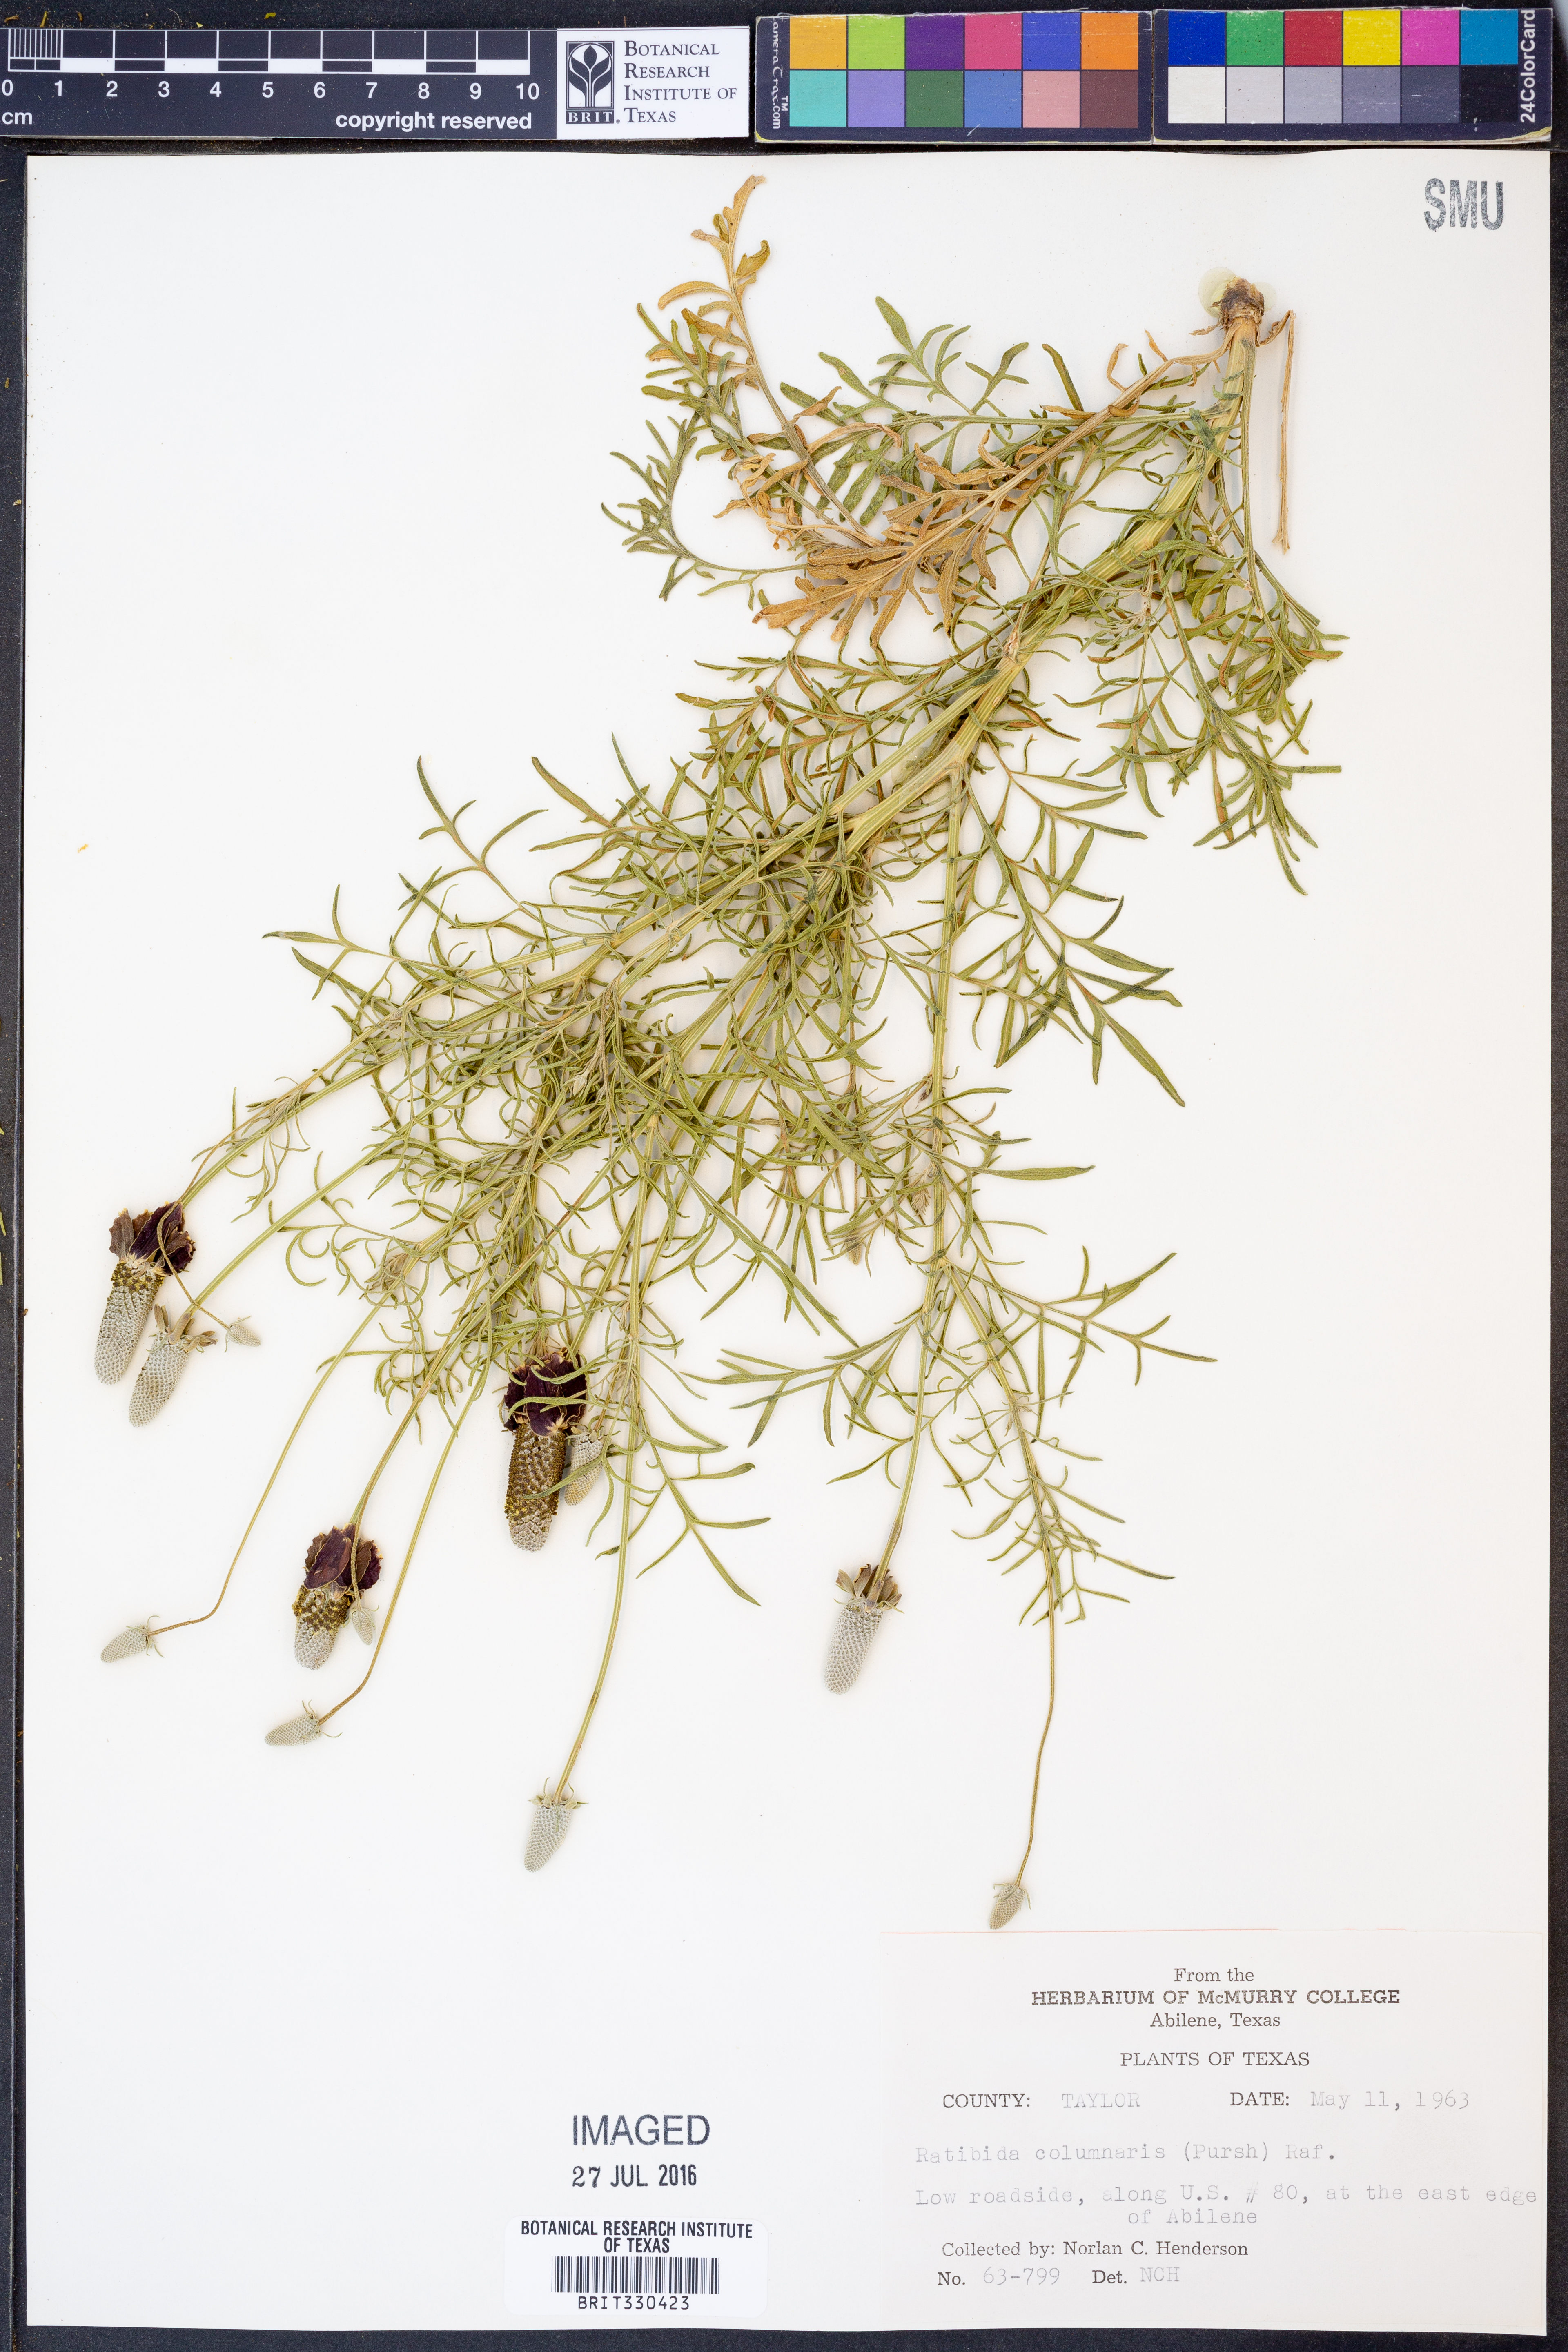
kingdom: Plantae
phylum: Tracheophyta
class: Magnoliopsida
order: Asterales
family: Asteraceae
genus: Ratibida
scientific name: Ratibida columnifera
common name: Prairie coneflower
